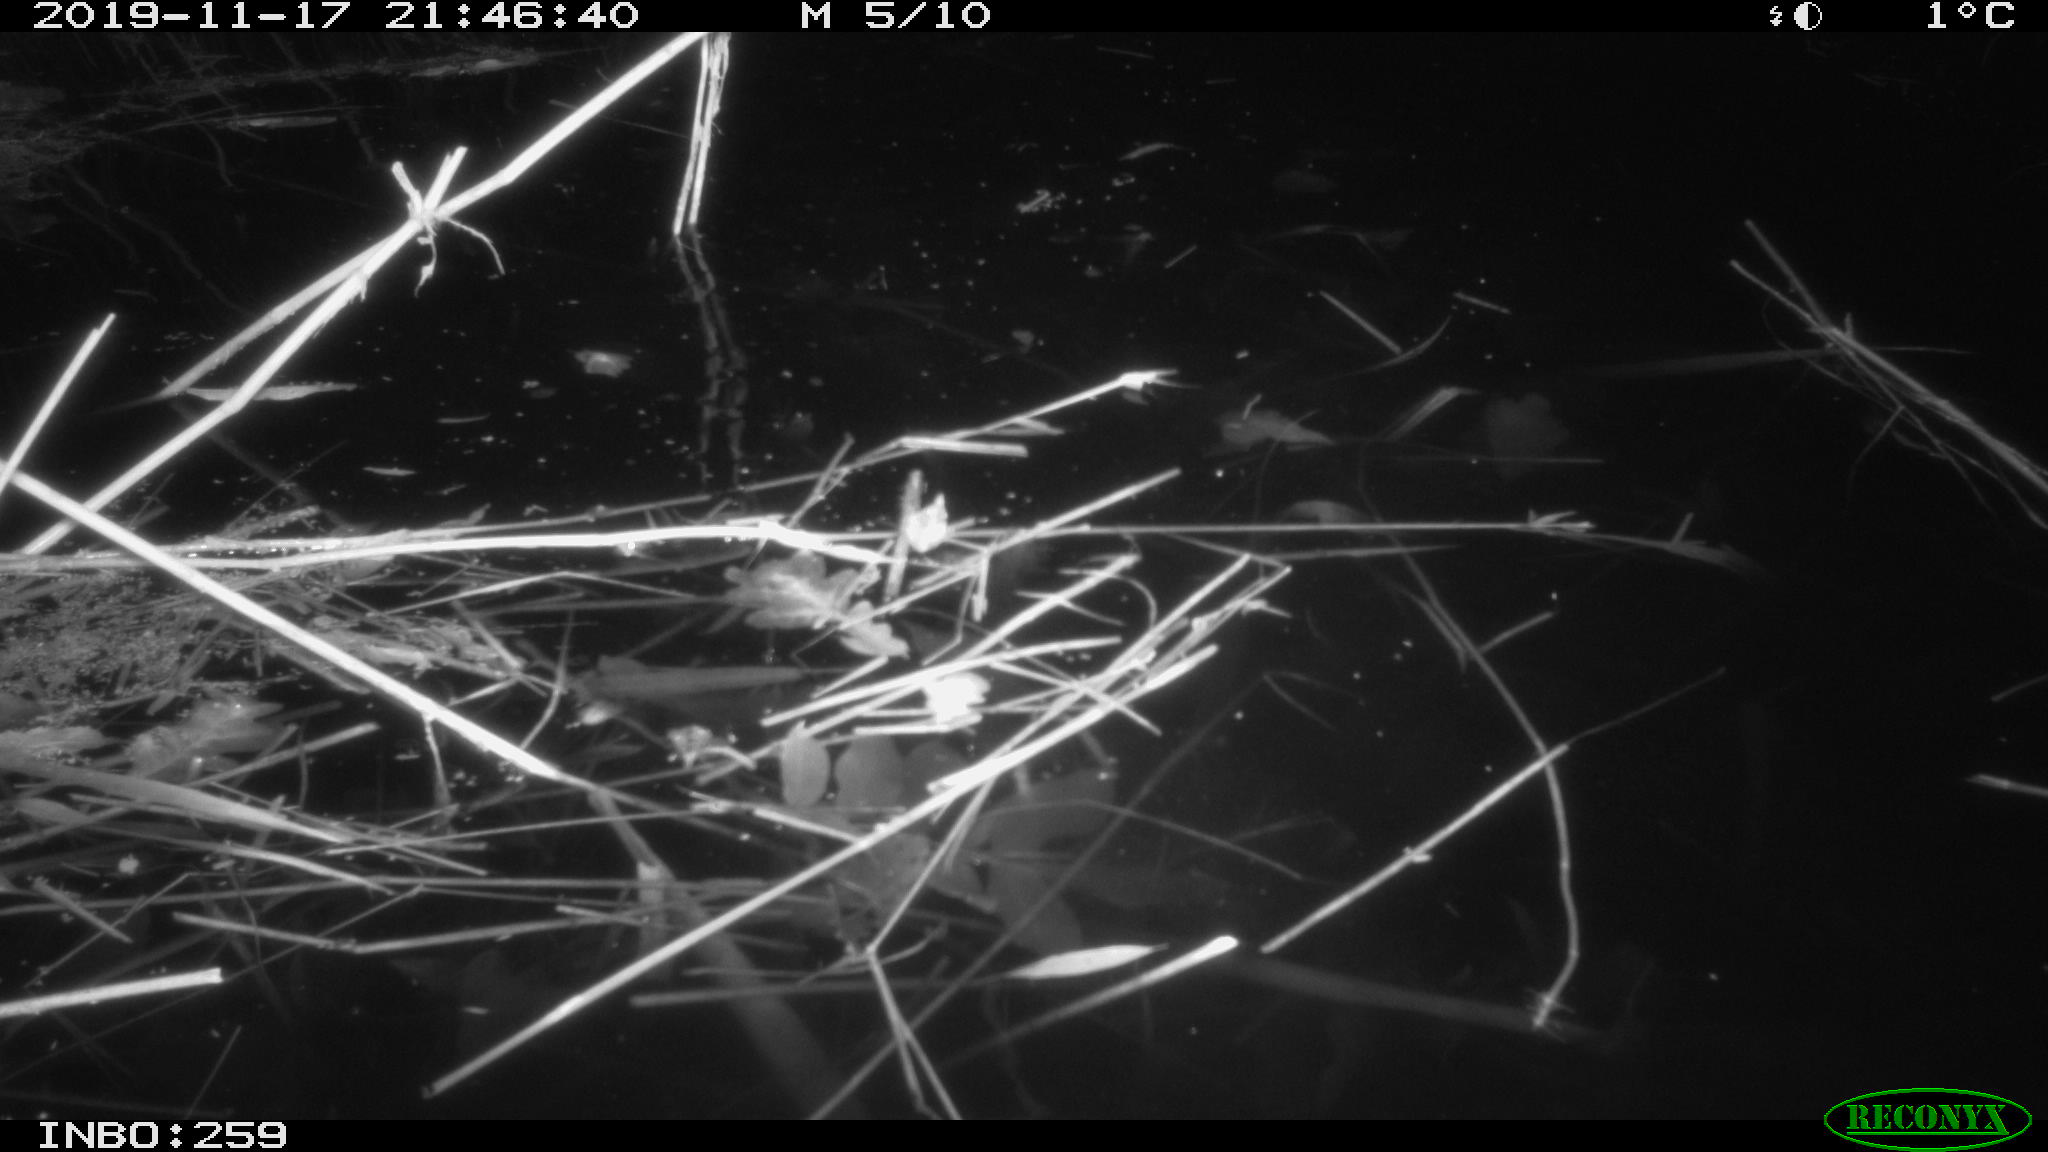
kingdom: Animalia
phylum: Chordata
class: Mammalia
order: Rodentia
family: Cricetidae
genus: Ondatra
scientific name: Ondatra zibethicus
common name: Muskrat
